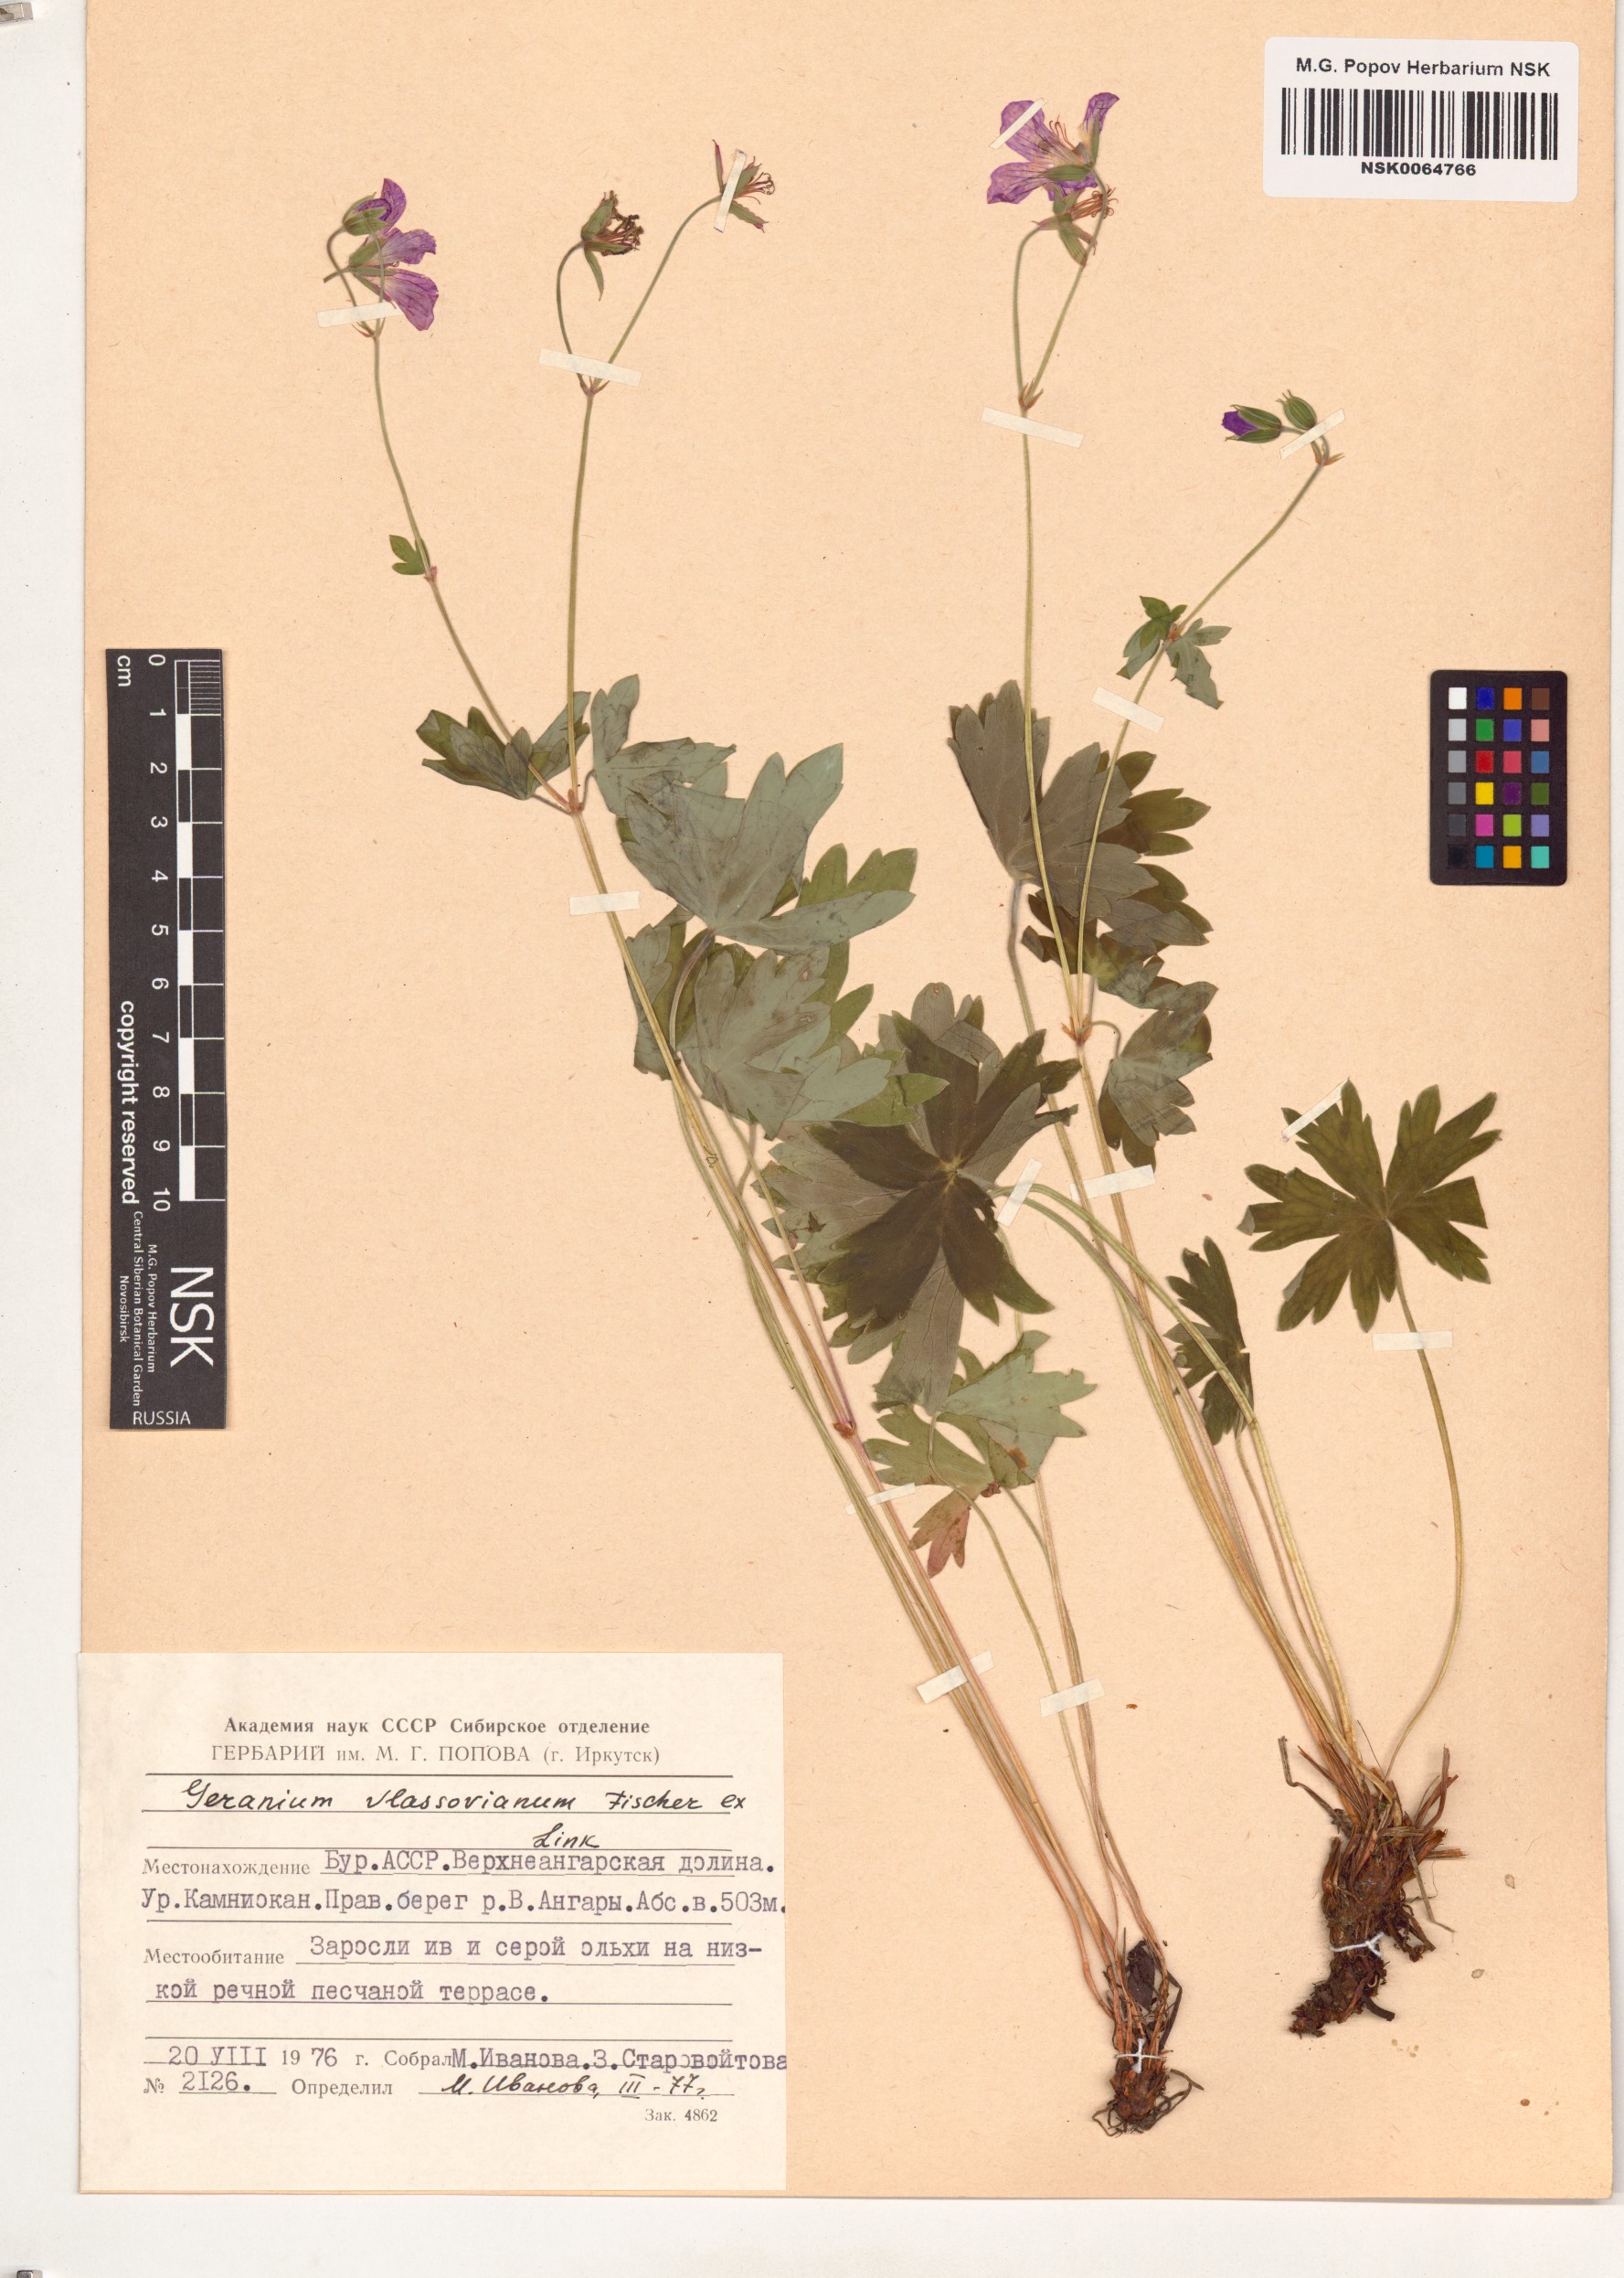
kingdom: Plantae
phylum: Tracheophyta
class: Magnoliopsida
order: Geraniales
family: Geraniaceae
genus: Geranium
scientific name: Geranium wlassovianum
